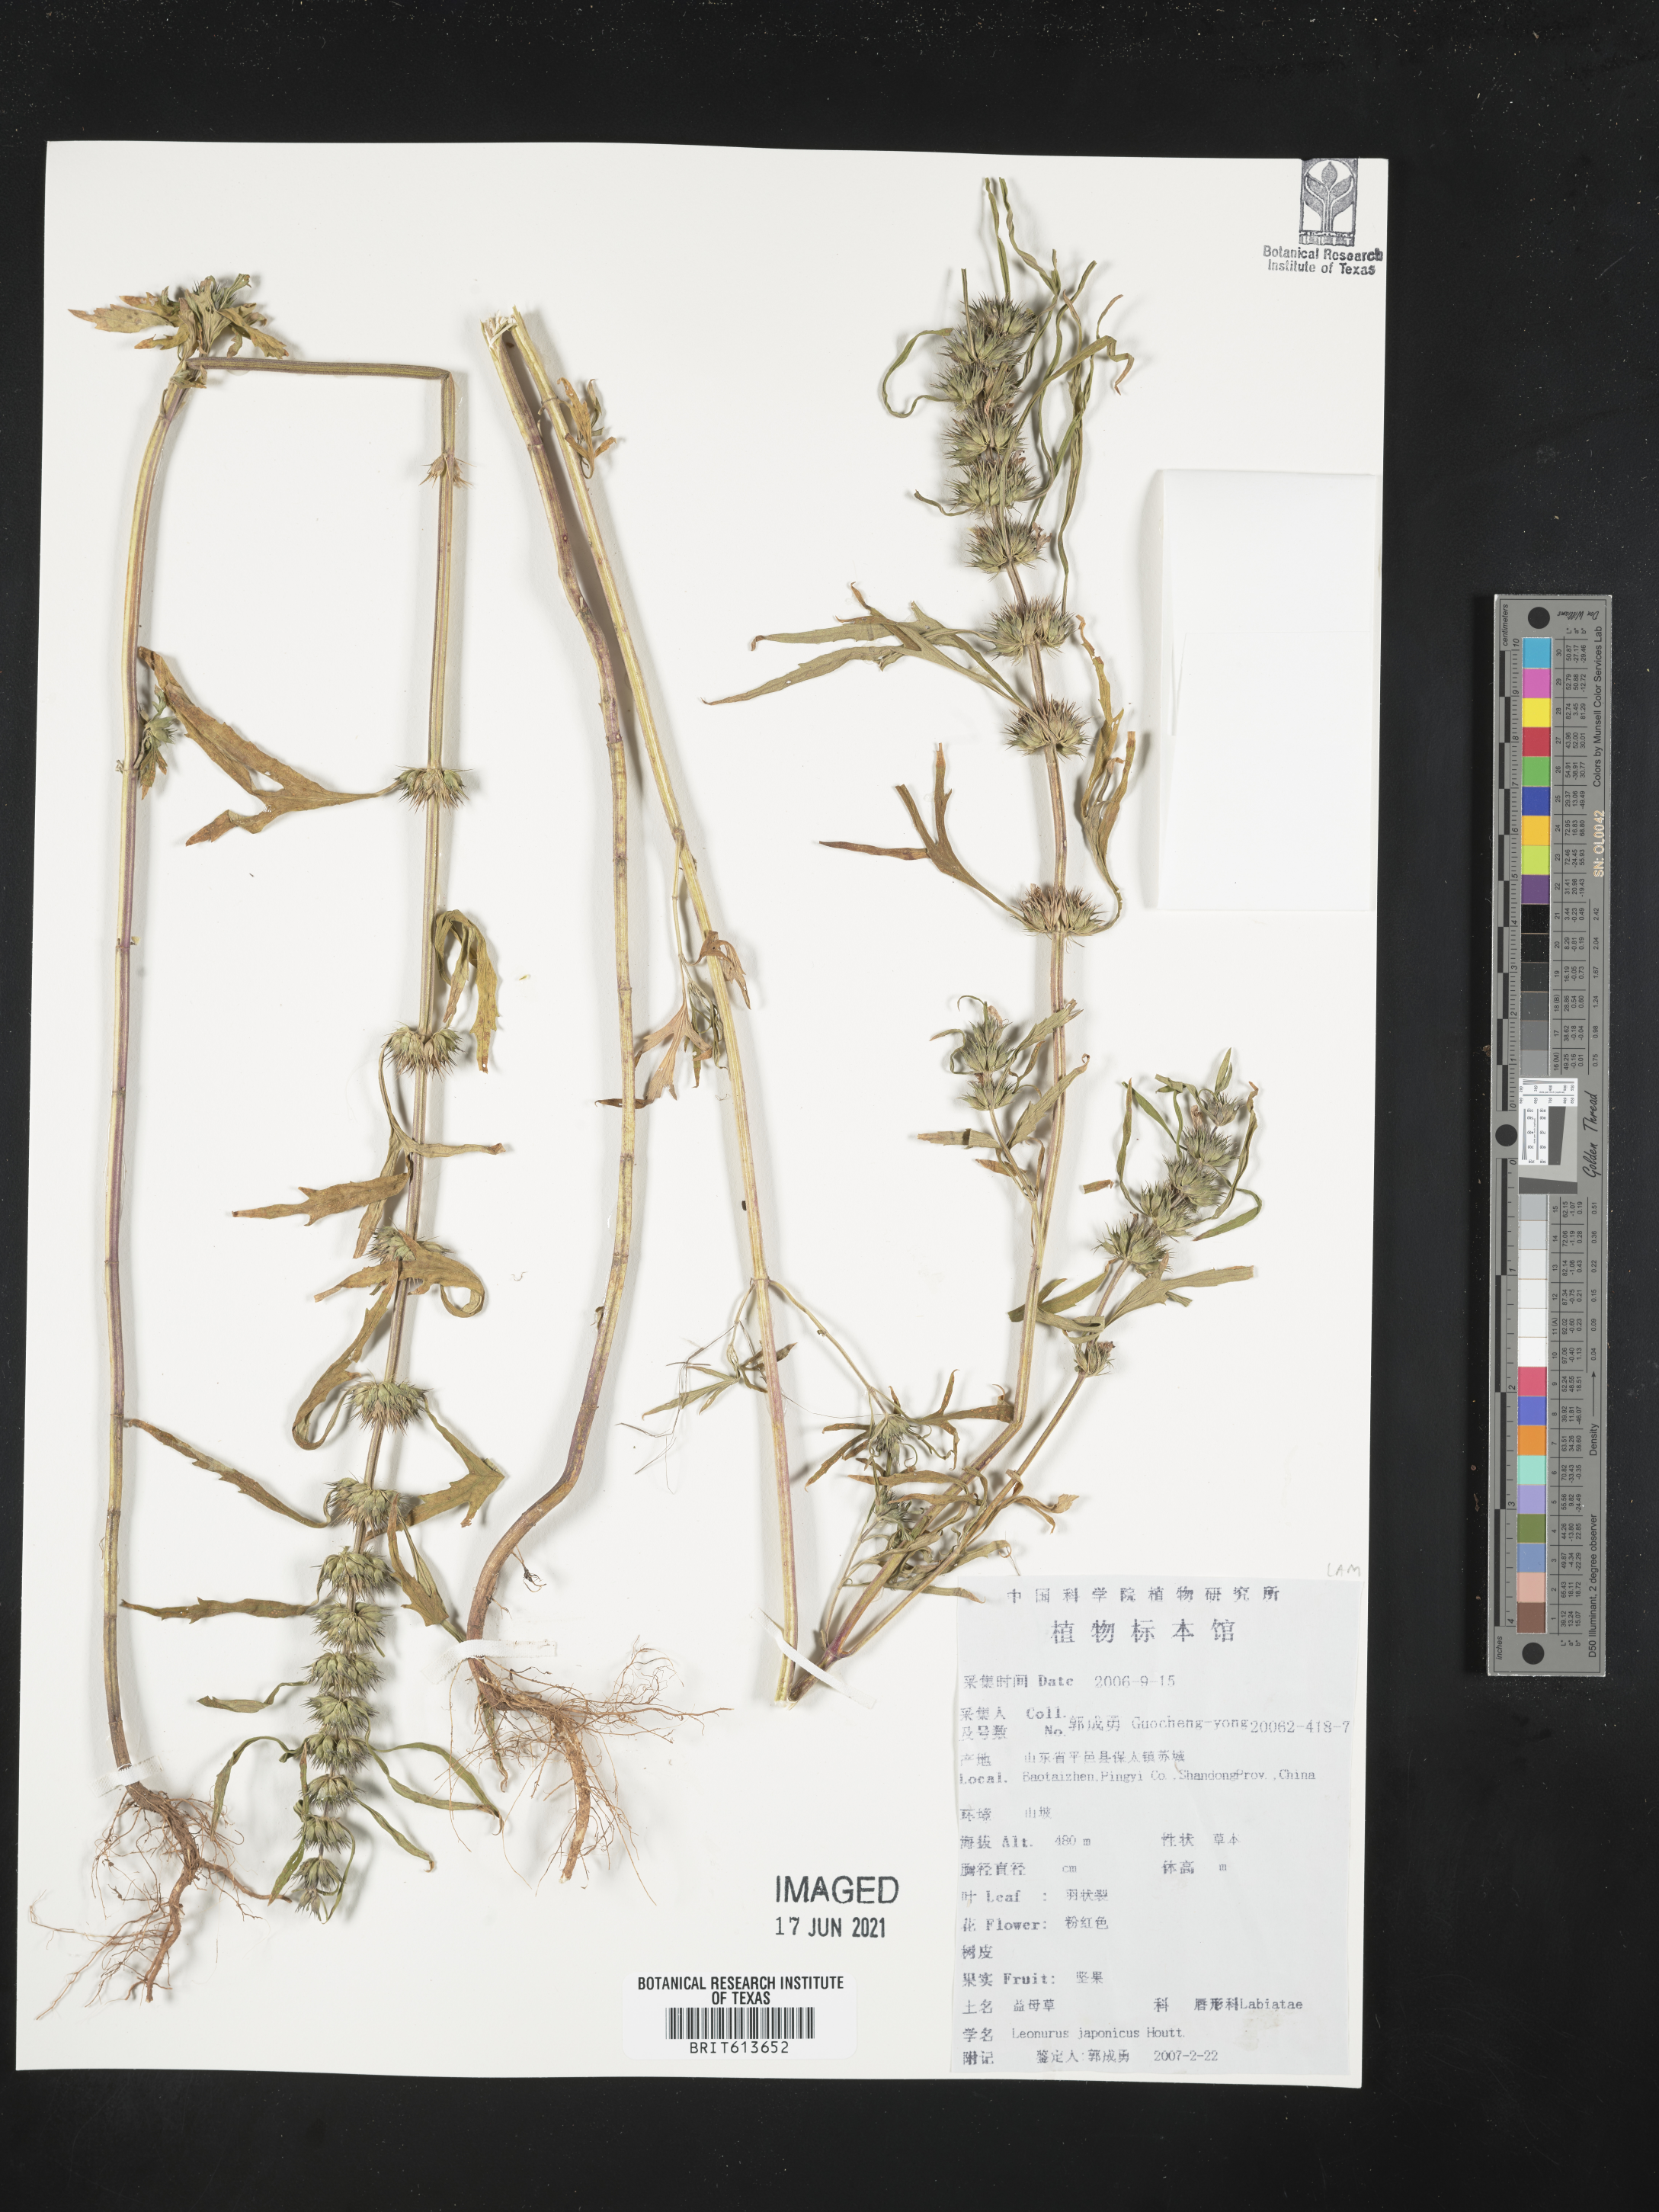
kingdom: Plantae
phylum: Tracheophyta
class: Magnoliopsida
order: Lamiales
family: Lamiaceae
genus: Leonurus
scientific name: Leonurus japonicus
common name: Honeyweed
